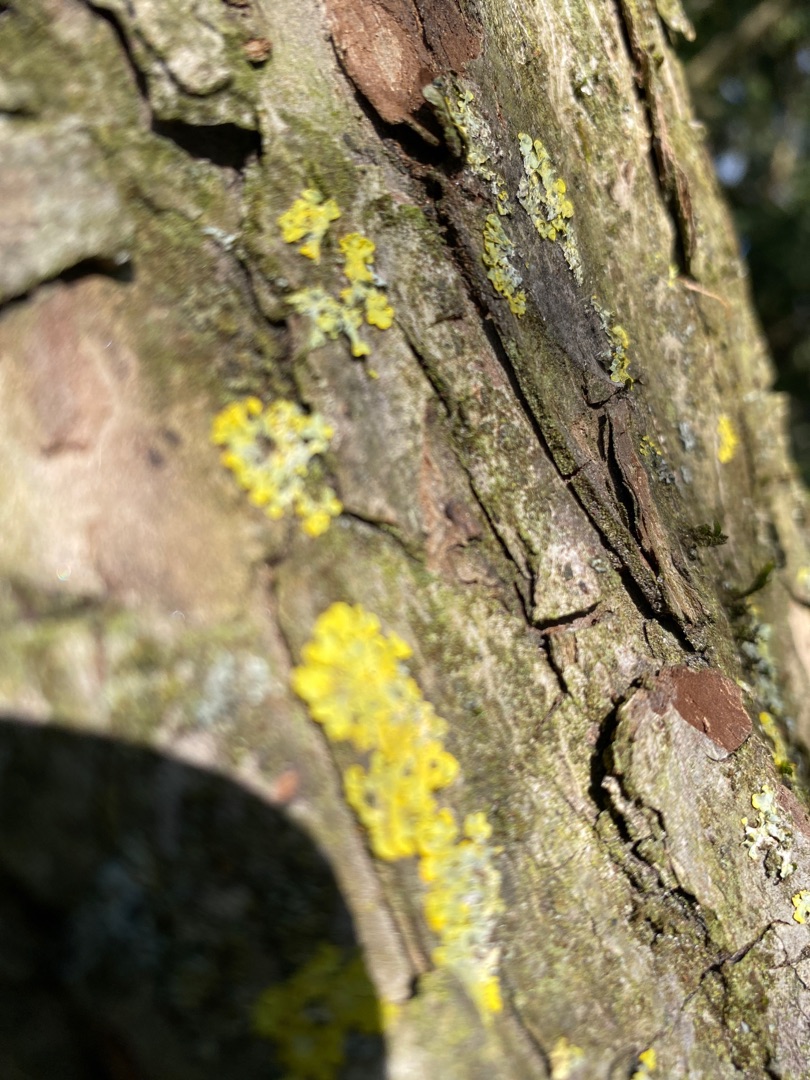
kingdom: Fungi
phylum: Ascomycota
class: Lecanoromycetes
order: Teloschistales
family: Teloschistaceae
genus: Xanthoria
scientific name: Xanthoria parietina
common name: Almindelig væggelav
